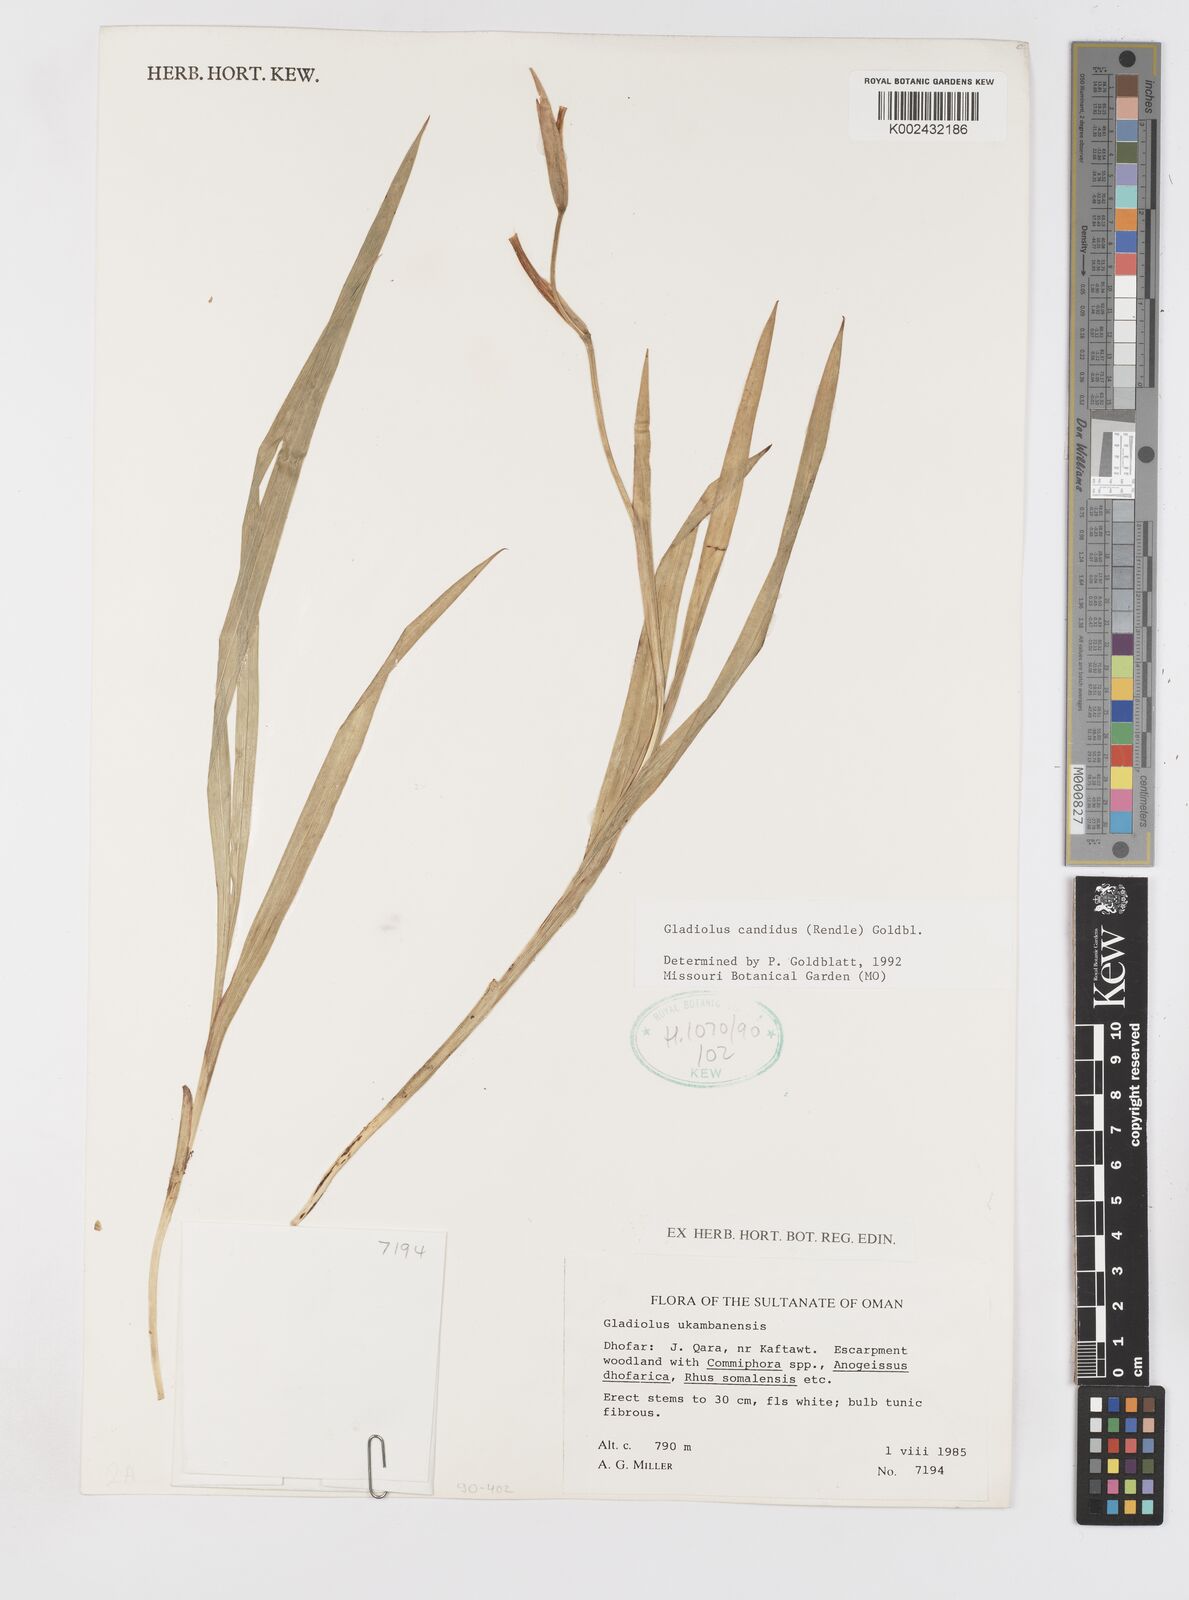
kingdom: Plantae
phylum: Tracheophyta
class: Liliopsida
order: Asparagales
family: Iridaceae
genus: Gladiolus
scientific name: Gladiolus candidus
